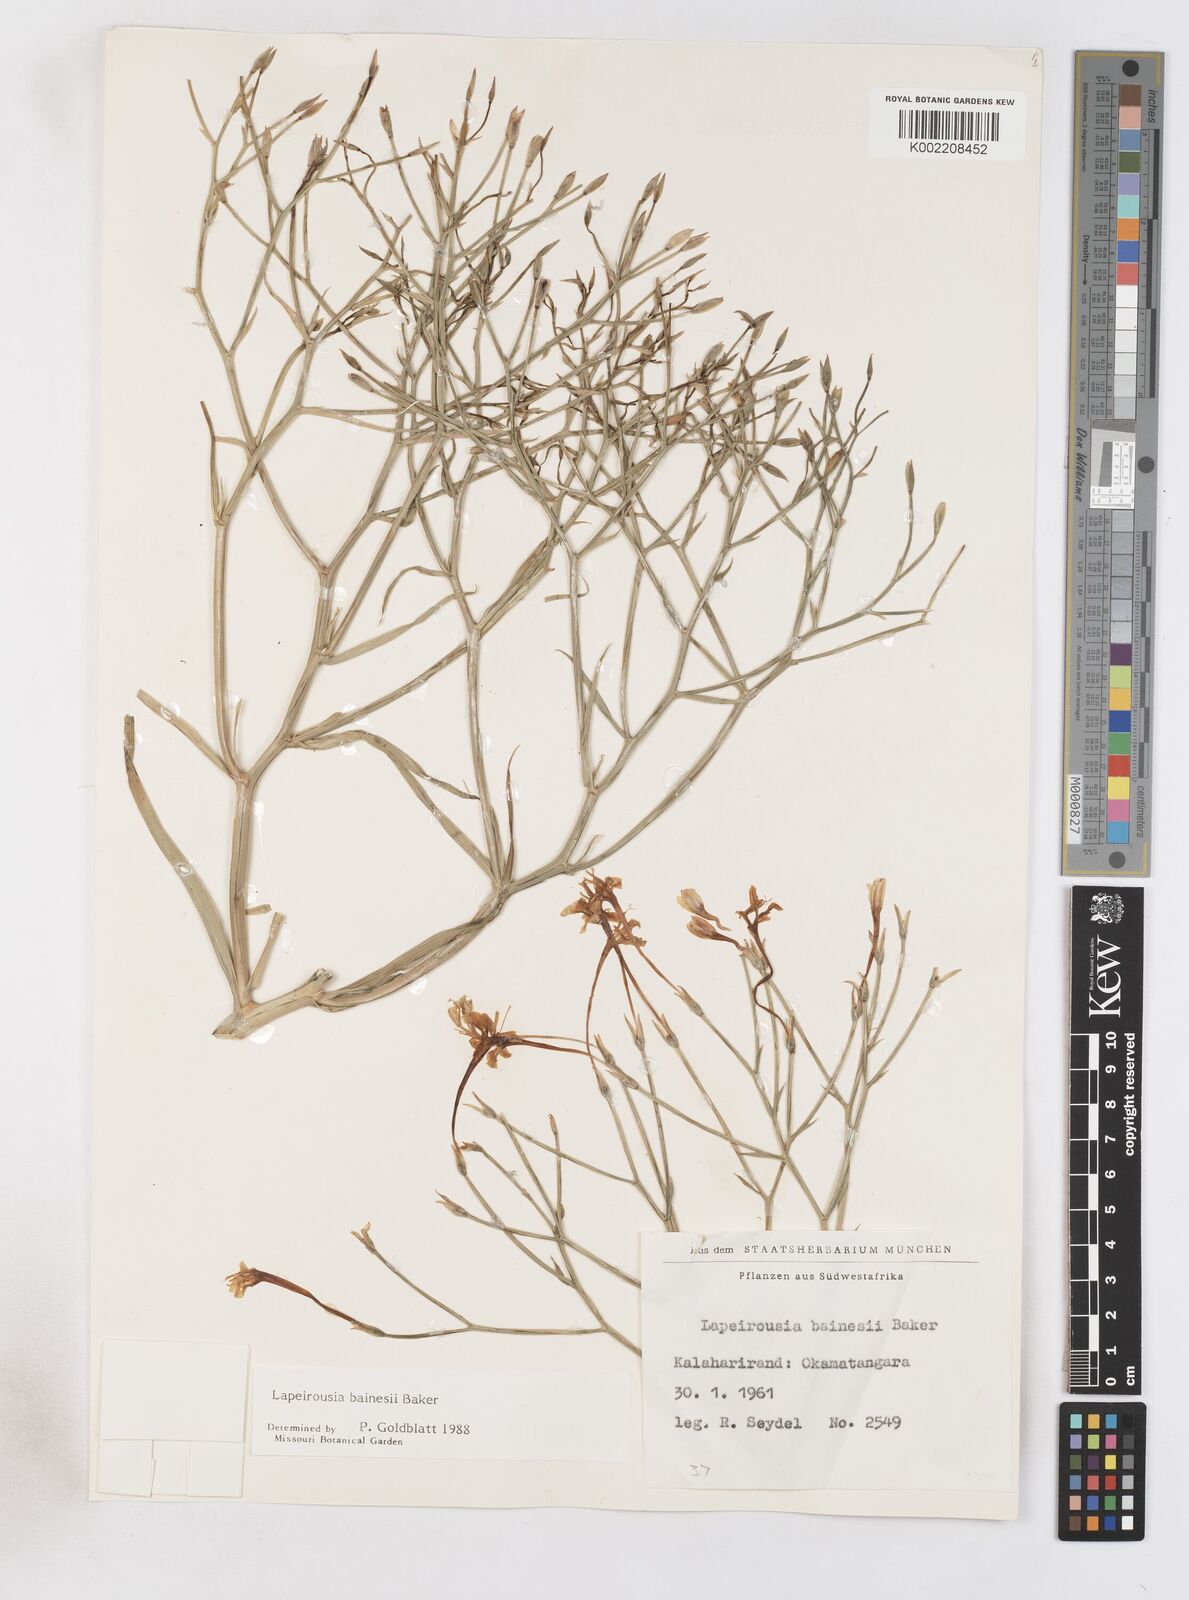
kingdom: Plantae
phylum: Tracheophyta
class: Liliopsida
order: Asparagales
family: Iridaceae
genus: Afrosolen
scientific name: Afrosolen erythranthus
